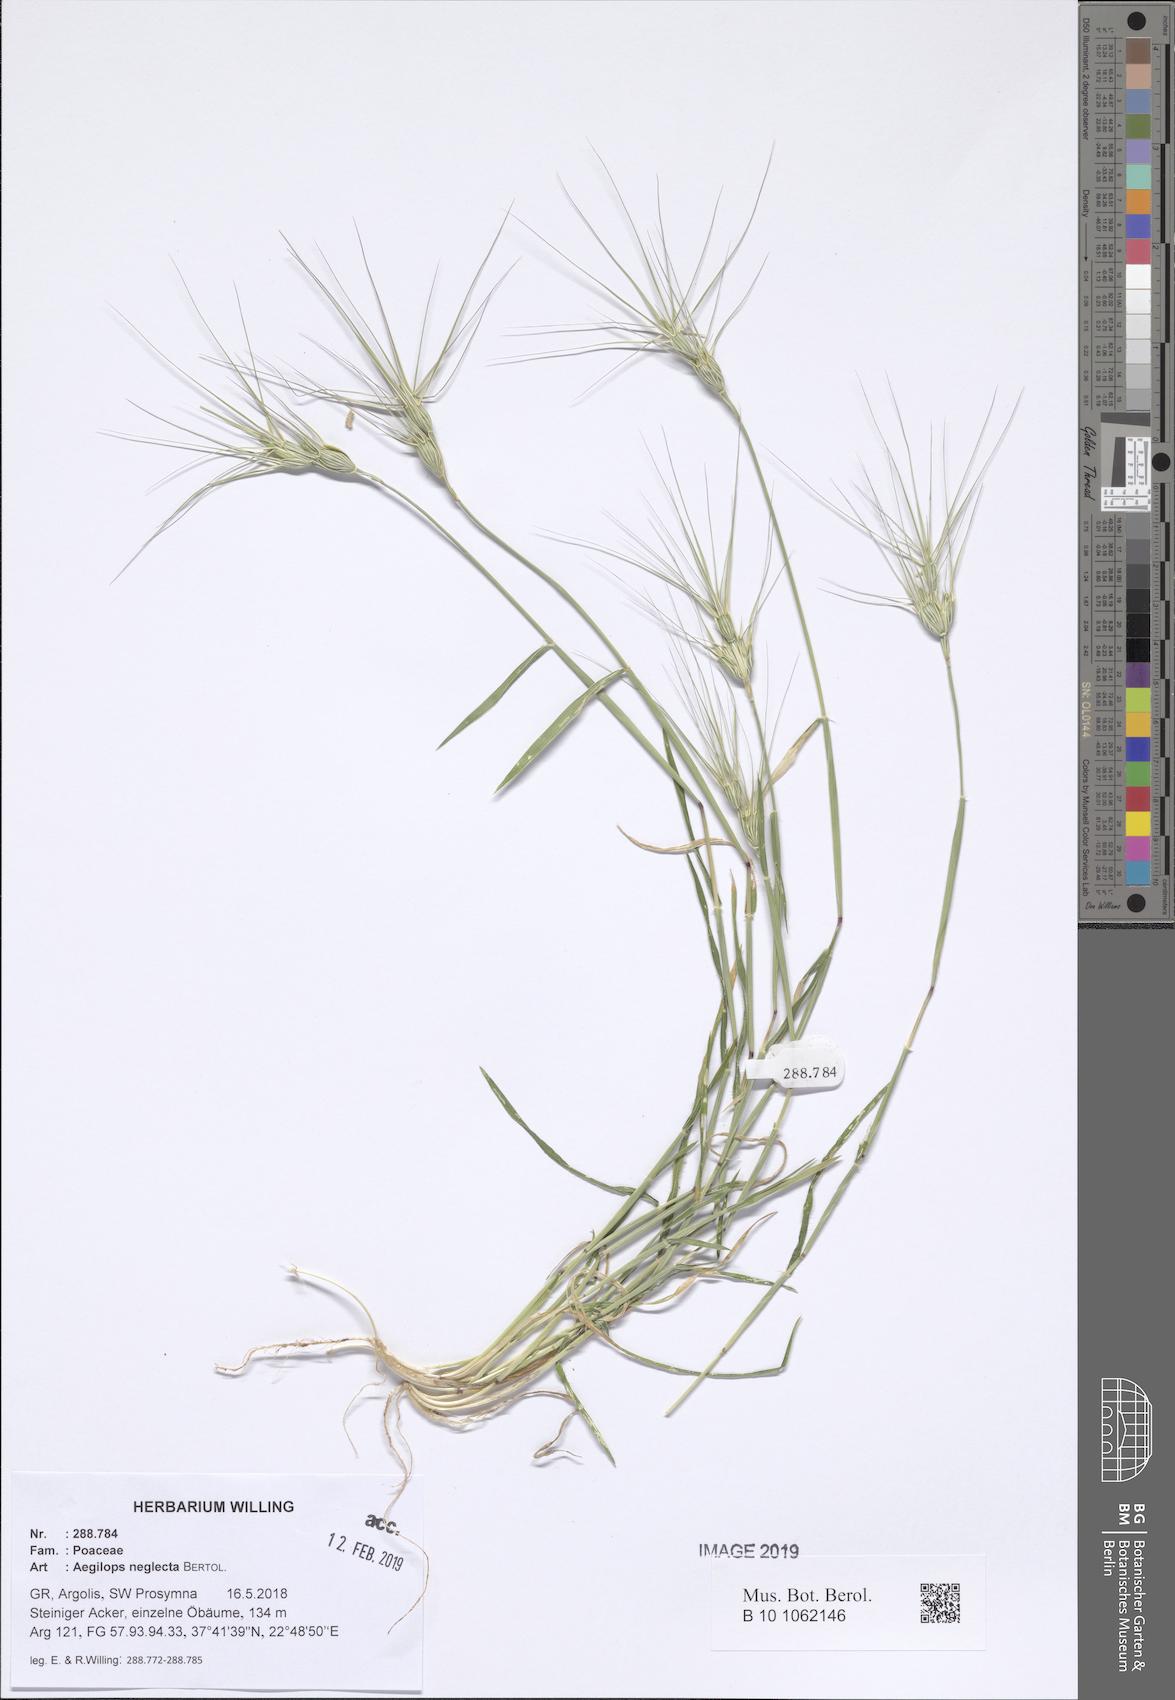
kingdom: Plantae
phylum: Tracheophyta
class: Liliopsida
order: Poales
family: Poaceae
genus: Aegilops
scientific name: Aegilops neglecta
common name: Three-awn goat grass
